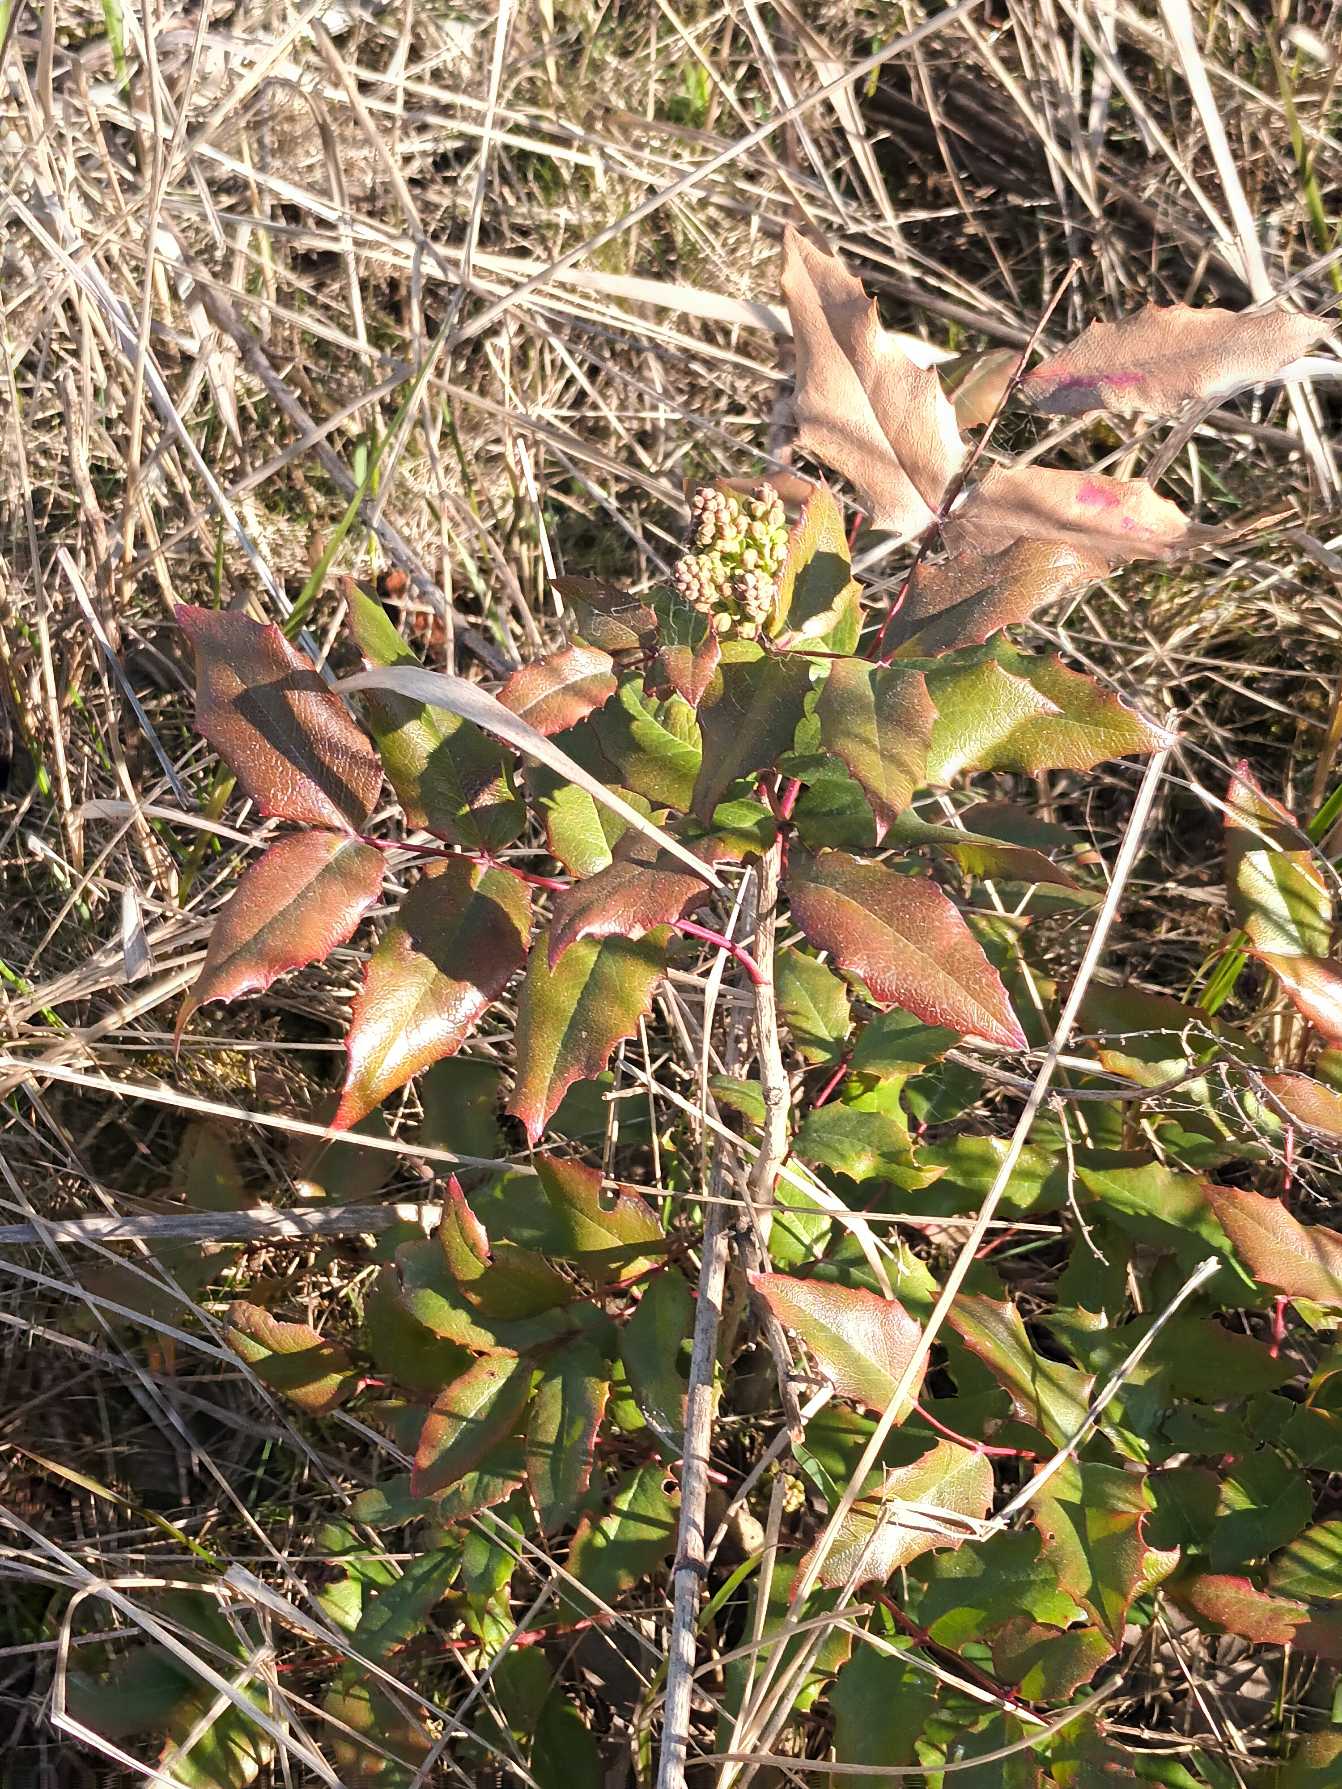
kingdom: Plantae
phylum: Tracheophyta
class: Magnoliopsida
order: Ranunculales
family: Berberidaceae
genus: Mahonia
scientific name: Mahonia aquifolium
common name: Almindelig mahonie
